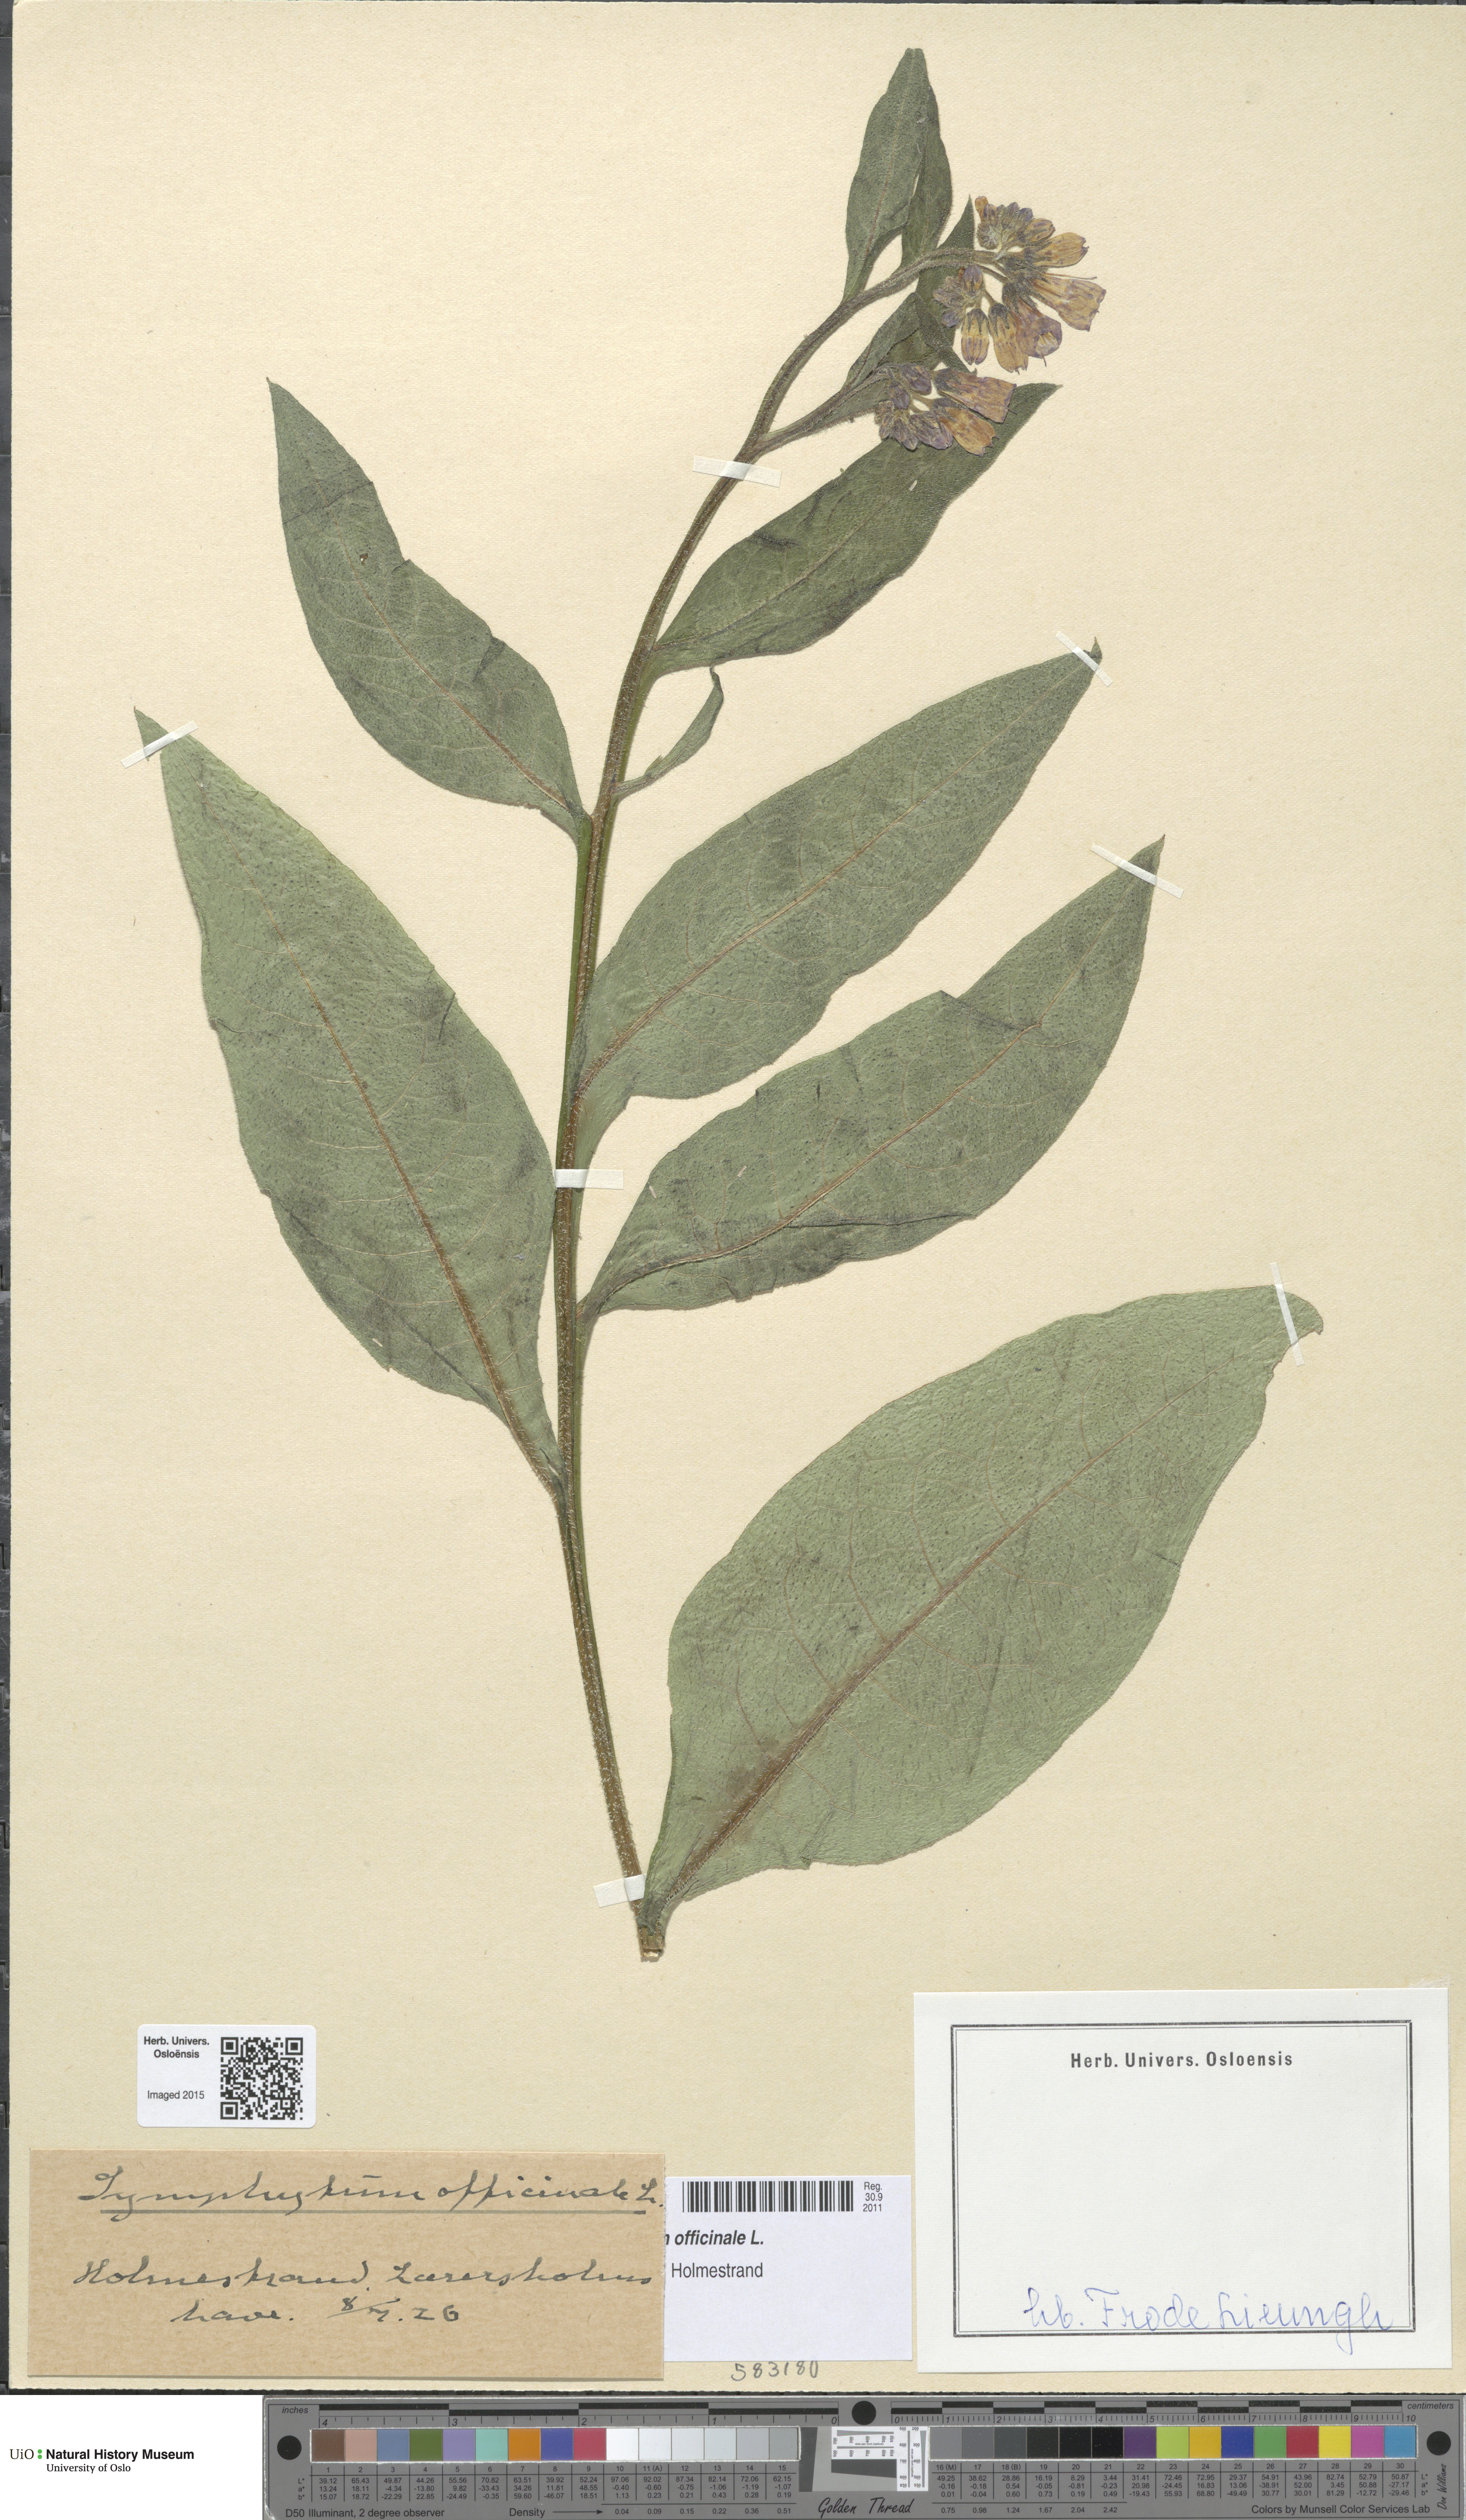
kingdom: Plantae
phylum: Tracheophyta
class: Magnoliopsida
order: Boraginales
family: Boraginaceae
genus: Symphytum
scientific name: Symphytum officinale
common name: Common comfrey
